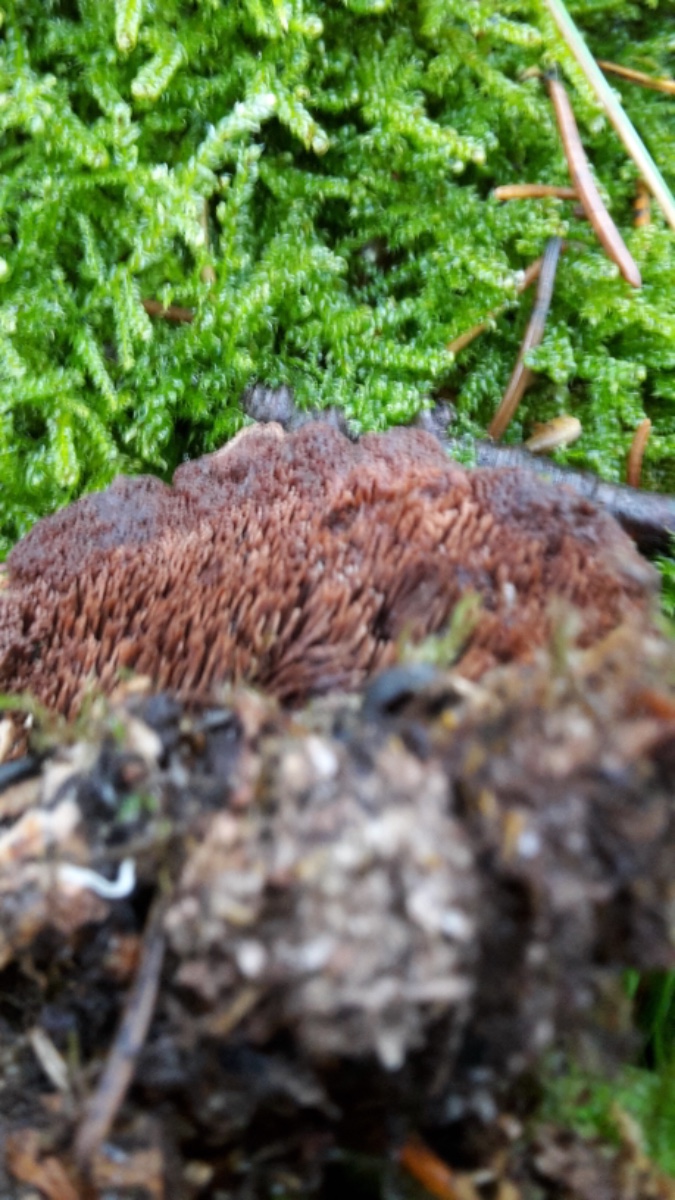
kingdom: Fungi
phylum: Basidiomycota
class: Agaricomycetes
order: Thelephorales
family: Bankeraceae
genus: Hydnellum
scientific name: Hydnellum cumulatum
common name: Rosette tooth
